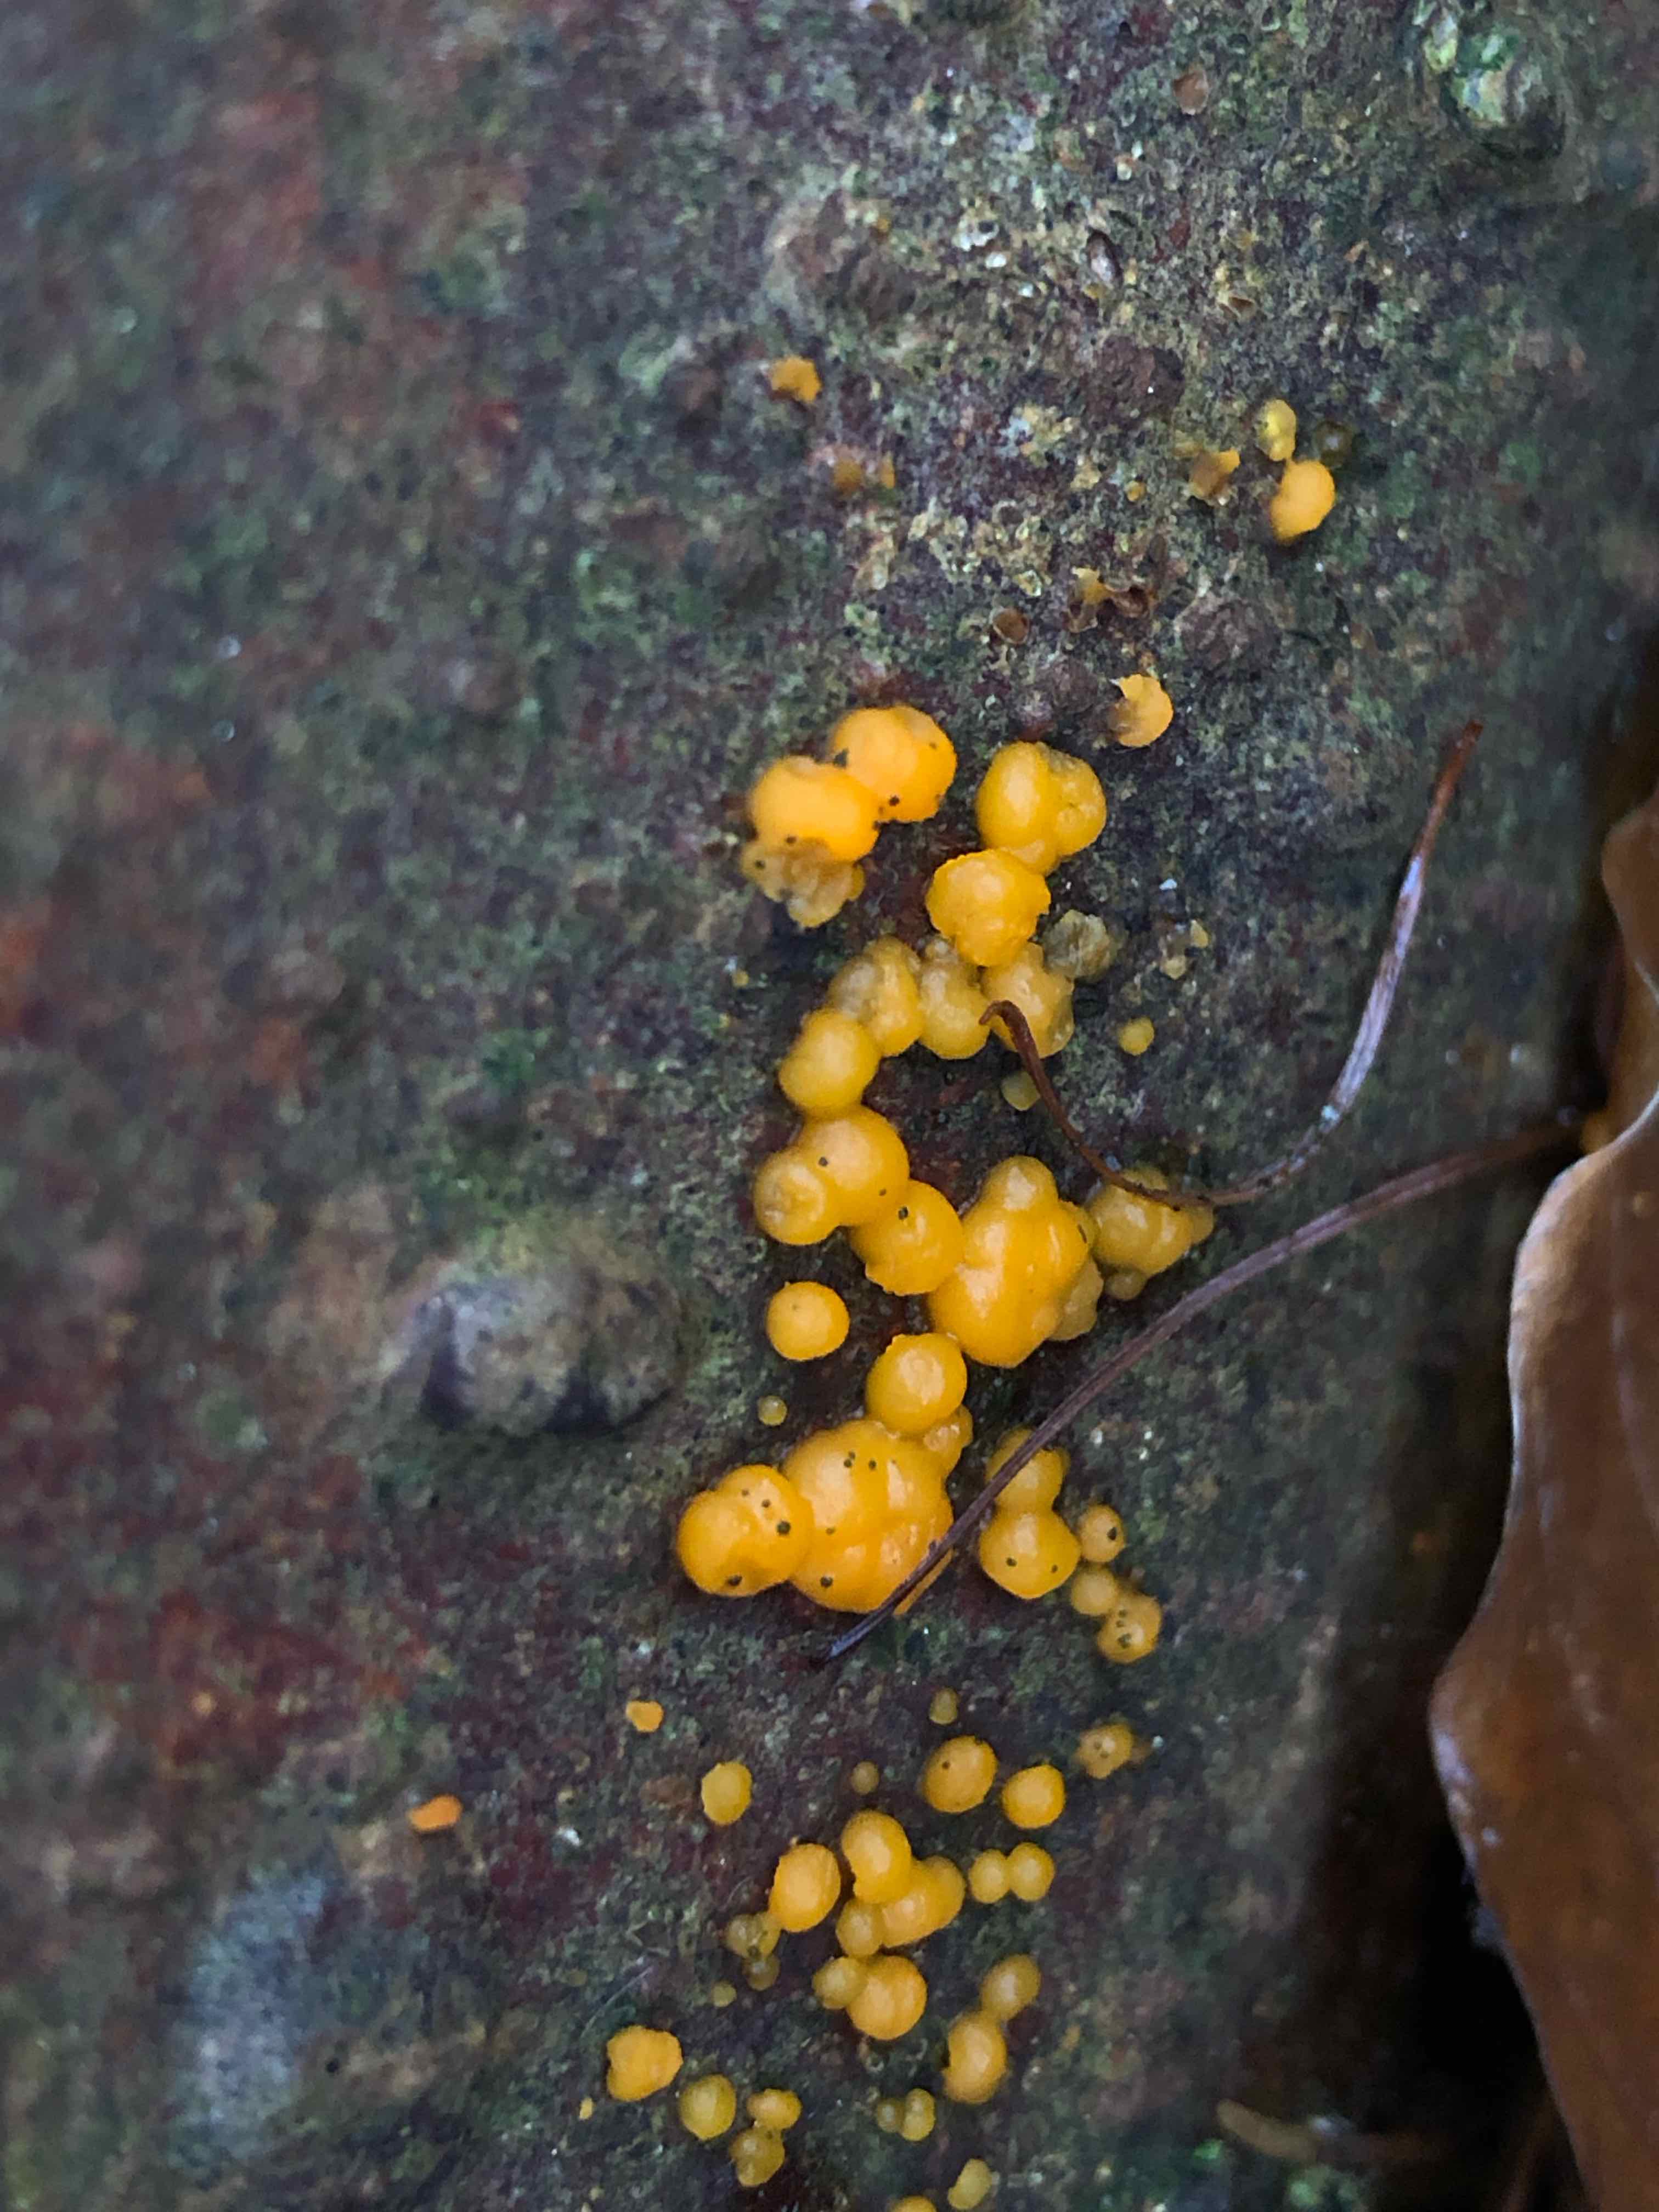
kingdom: Fungi
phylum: Basidiomycota
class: Dacrymycetes
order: Dacrymycetales
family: Dacrymycetaceae
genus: Dacrymyces
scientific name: Dacrymyces stillatus
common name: almindelig tåresvamp
